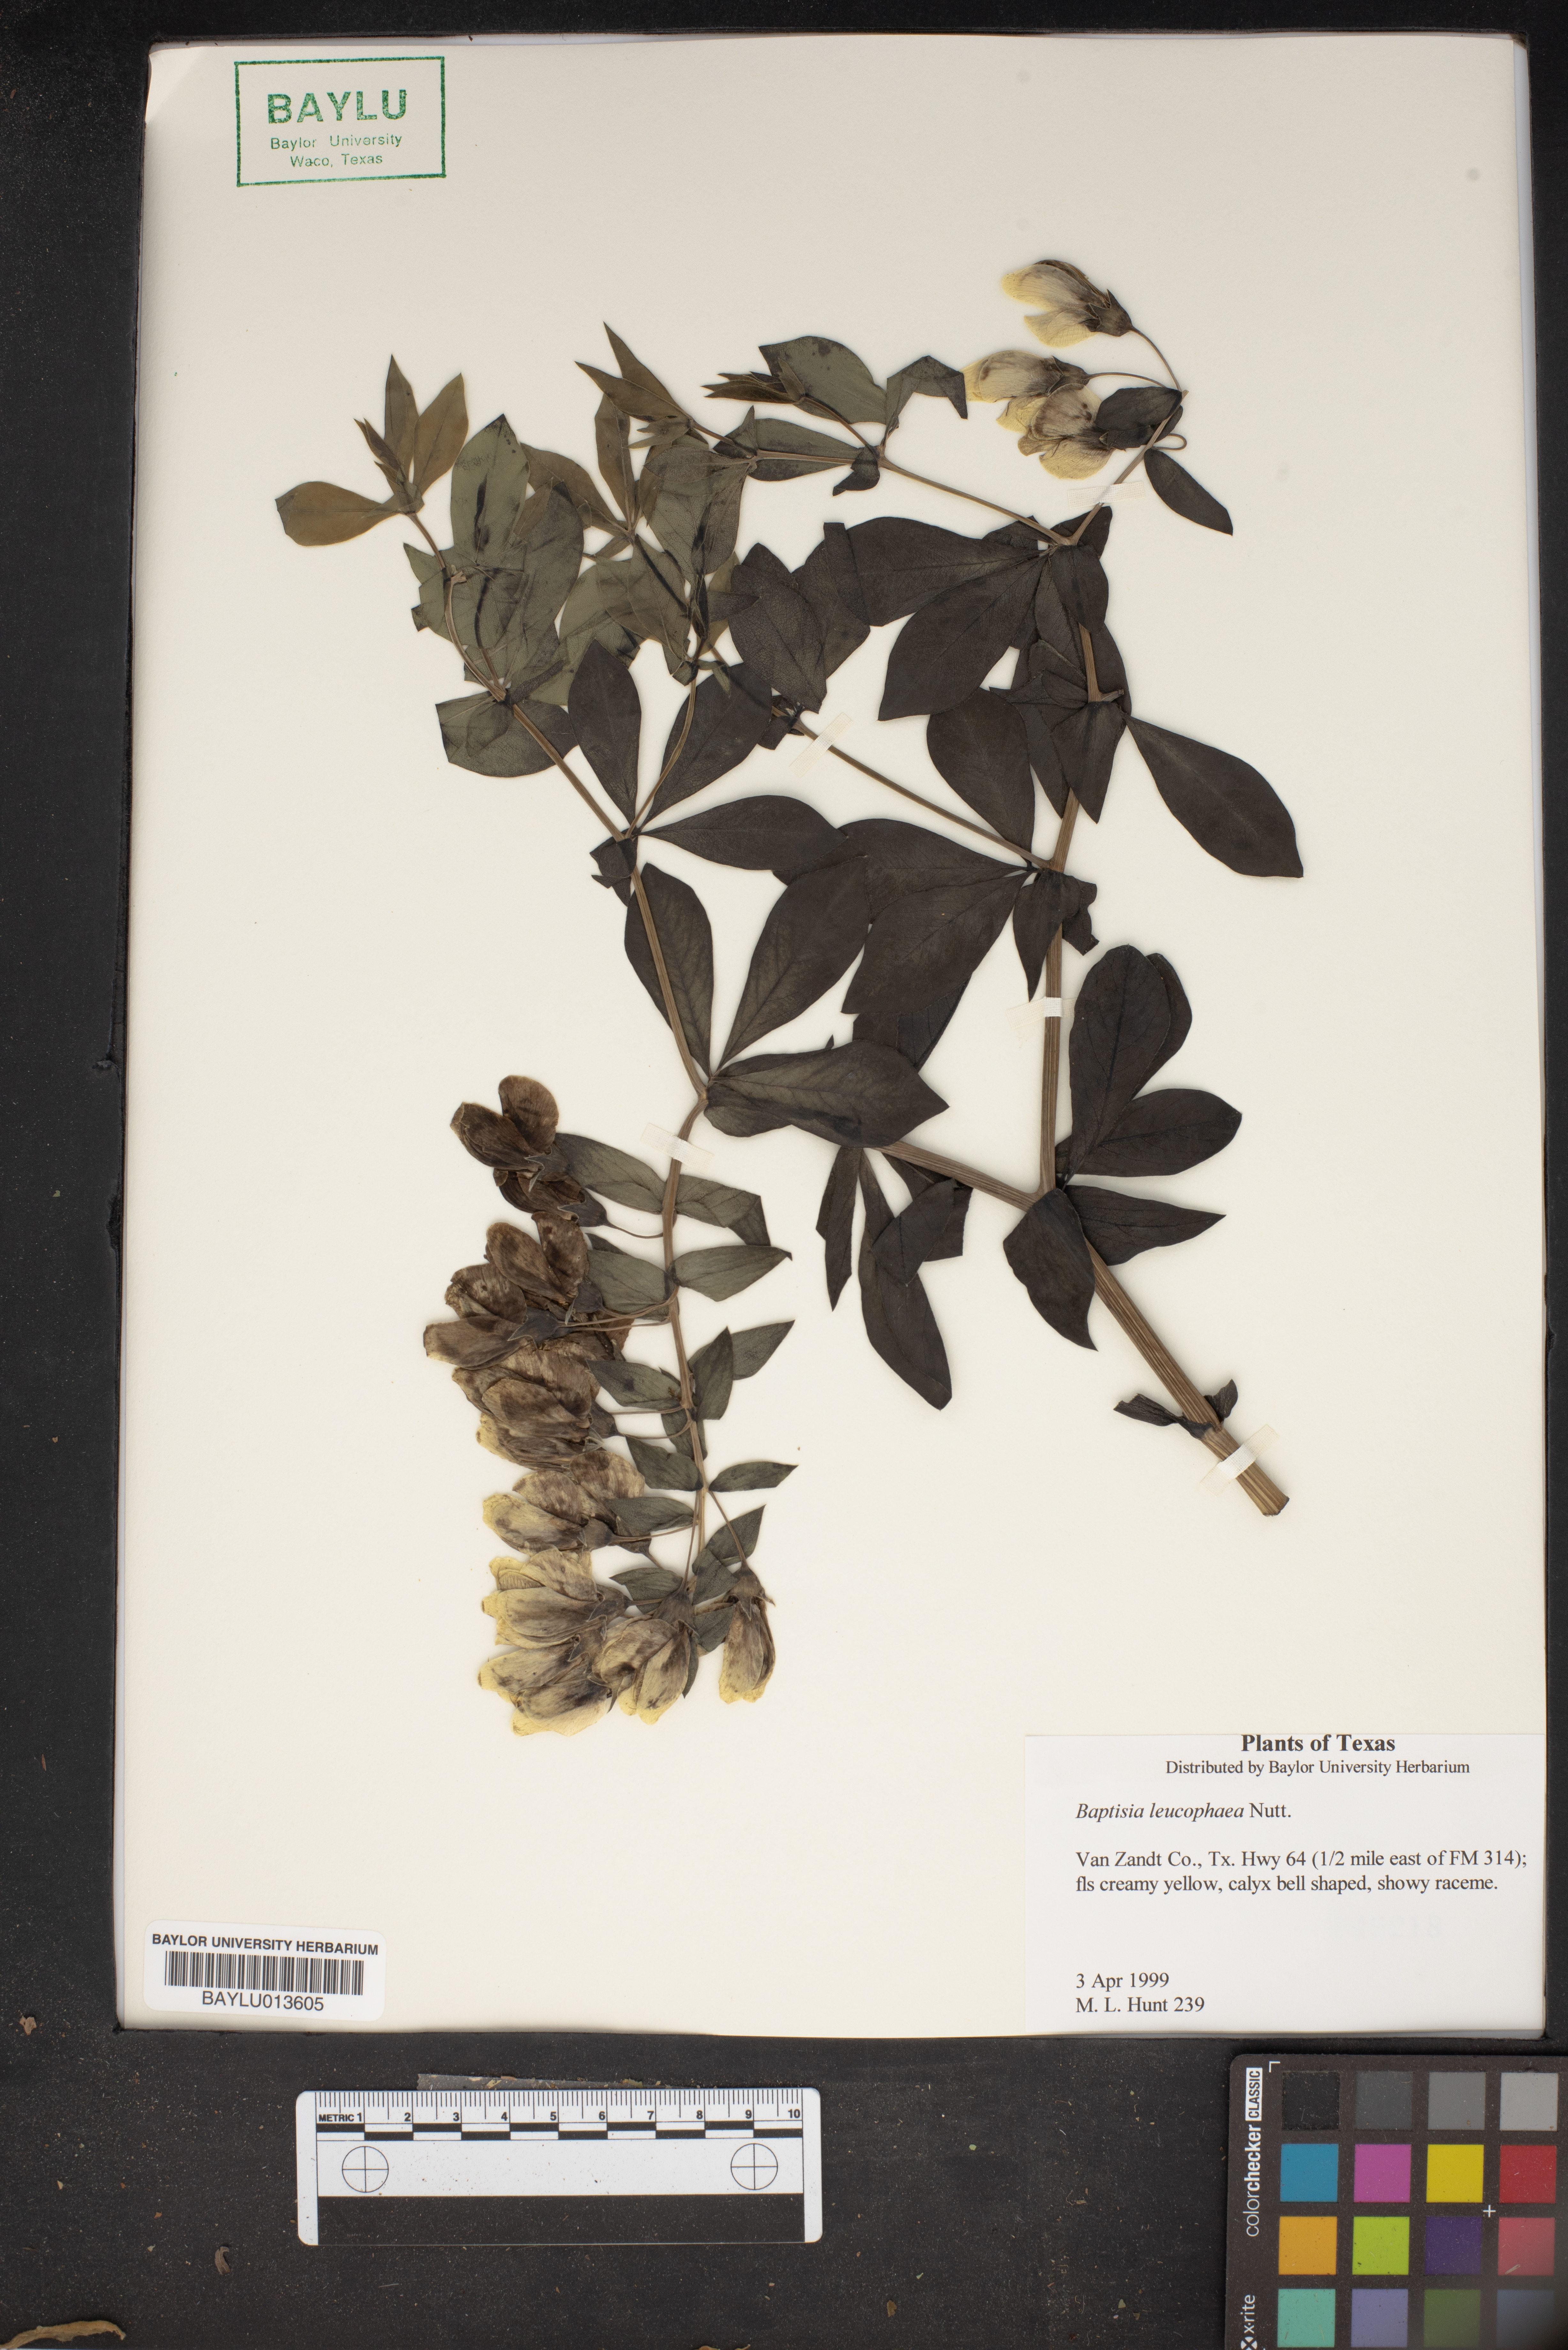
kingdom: Plantae
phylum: Tracheophyta
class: Magnoliopsida
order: Fabales
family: Fabaceae
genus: Baptisia
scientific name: Baptisia bracteata
